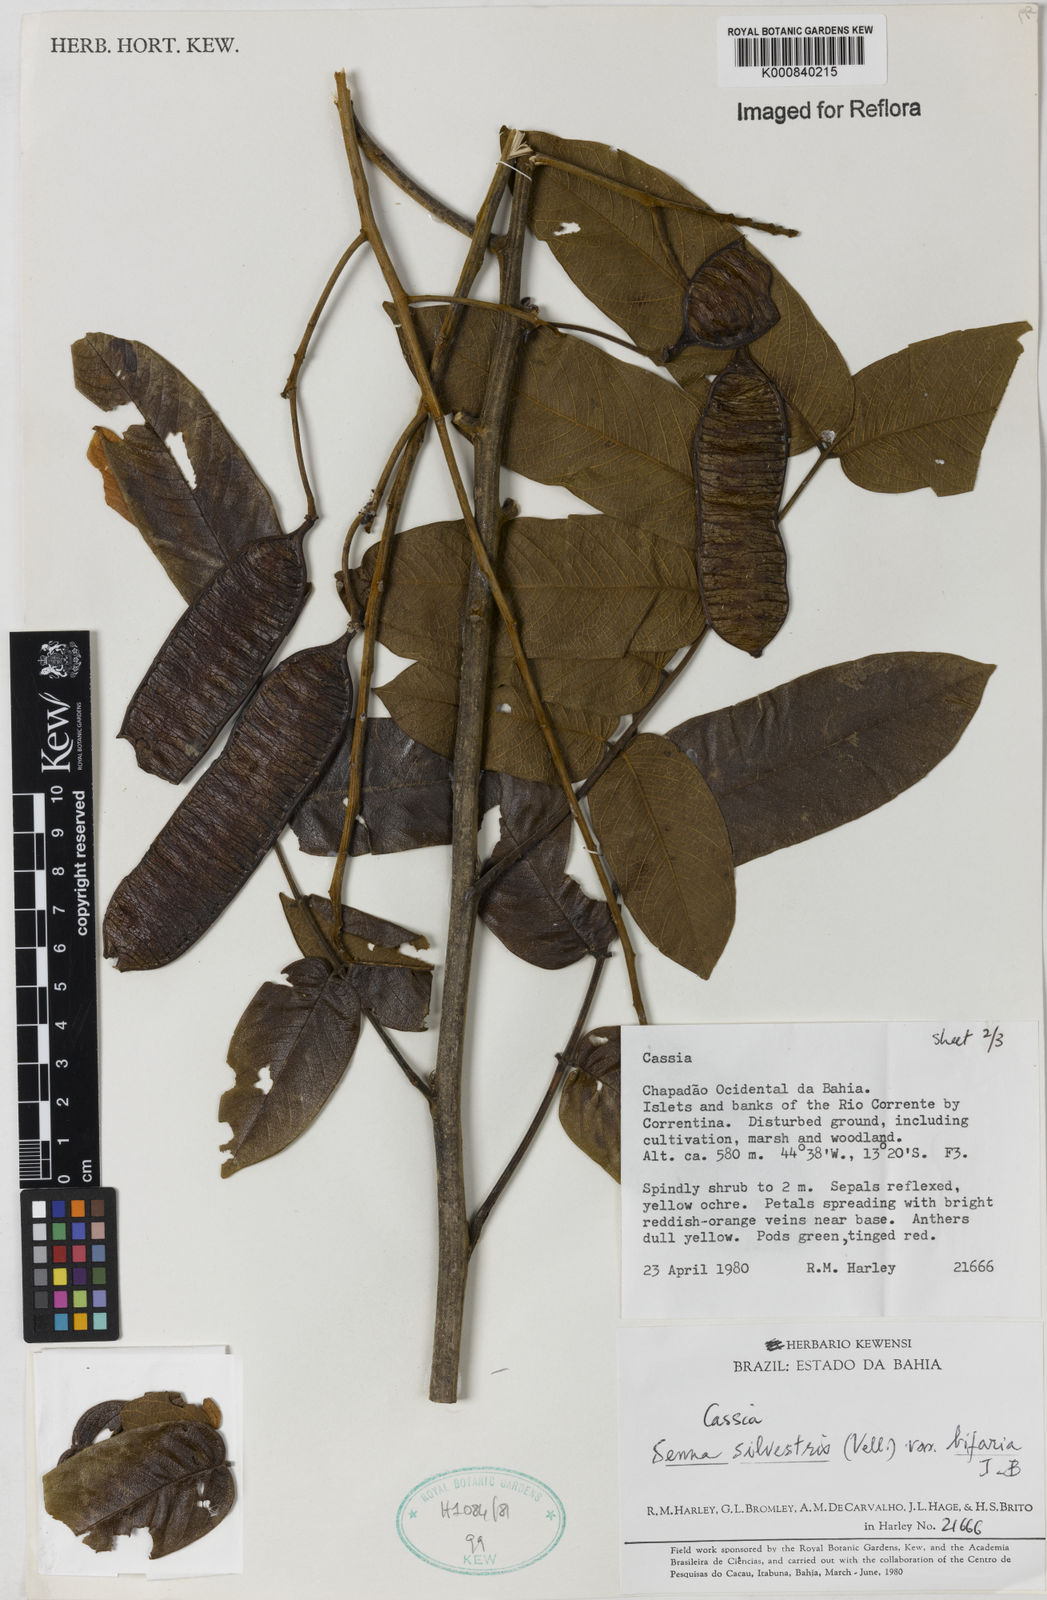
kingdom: Plantae
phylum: Tracheophyta
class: Magnoliopsida
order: Fabales
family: Fabaceae
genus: Senna
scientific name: Senna silvestris
